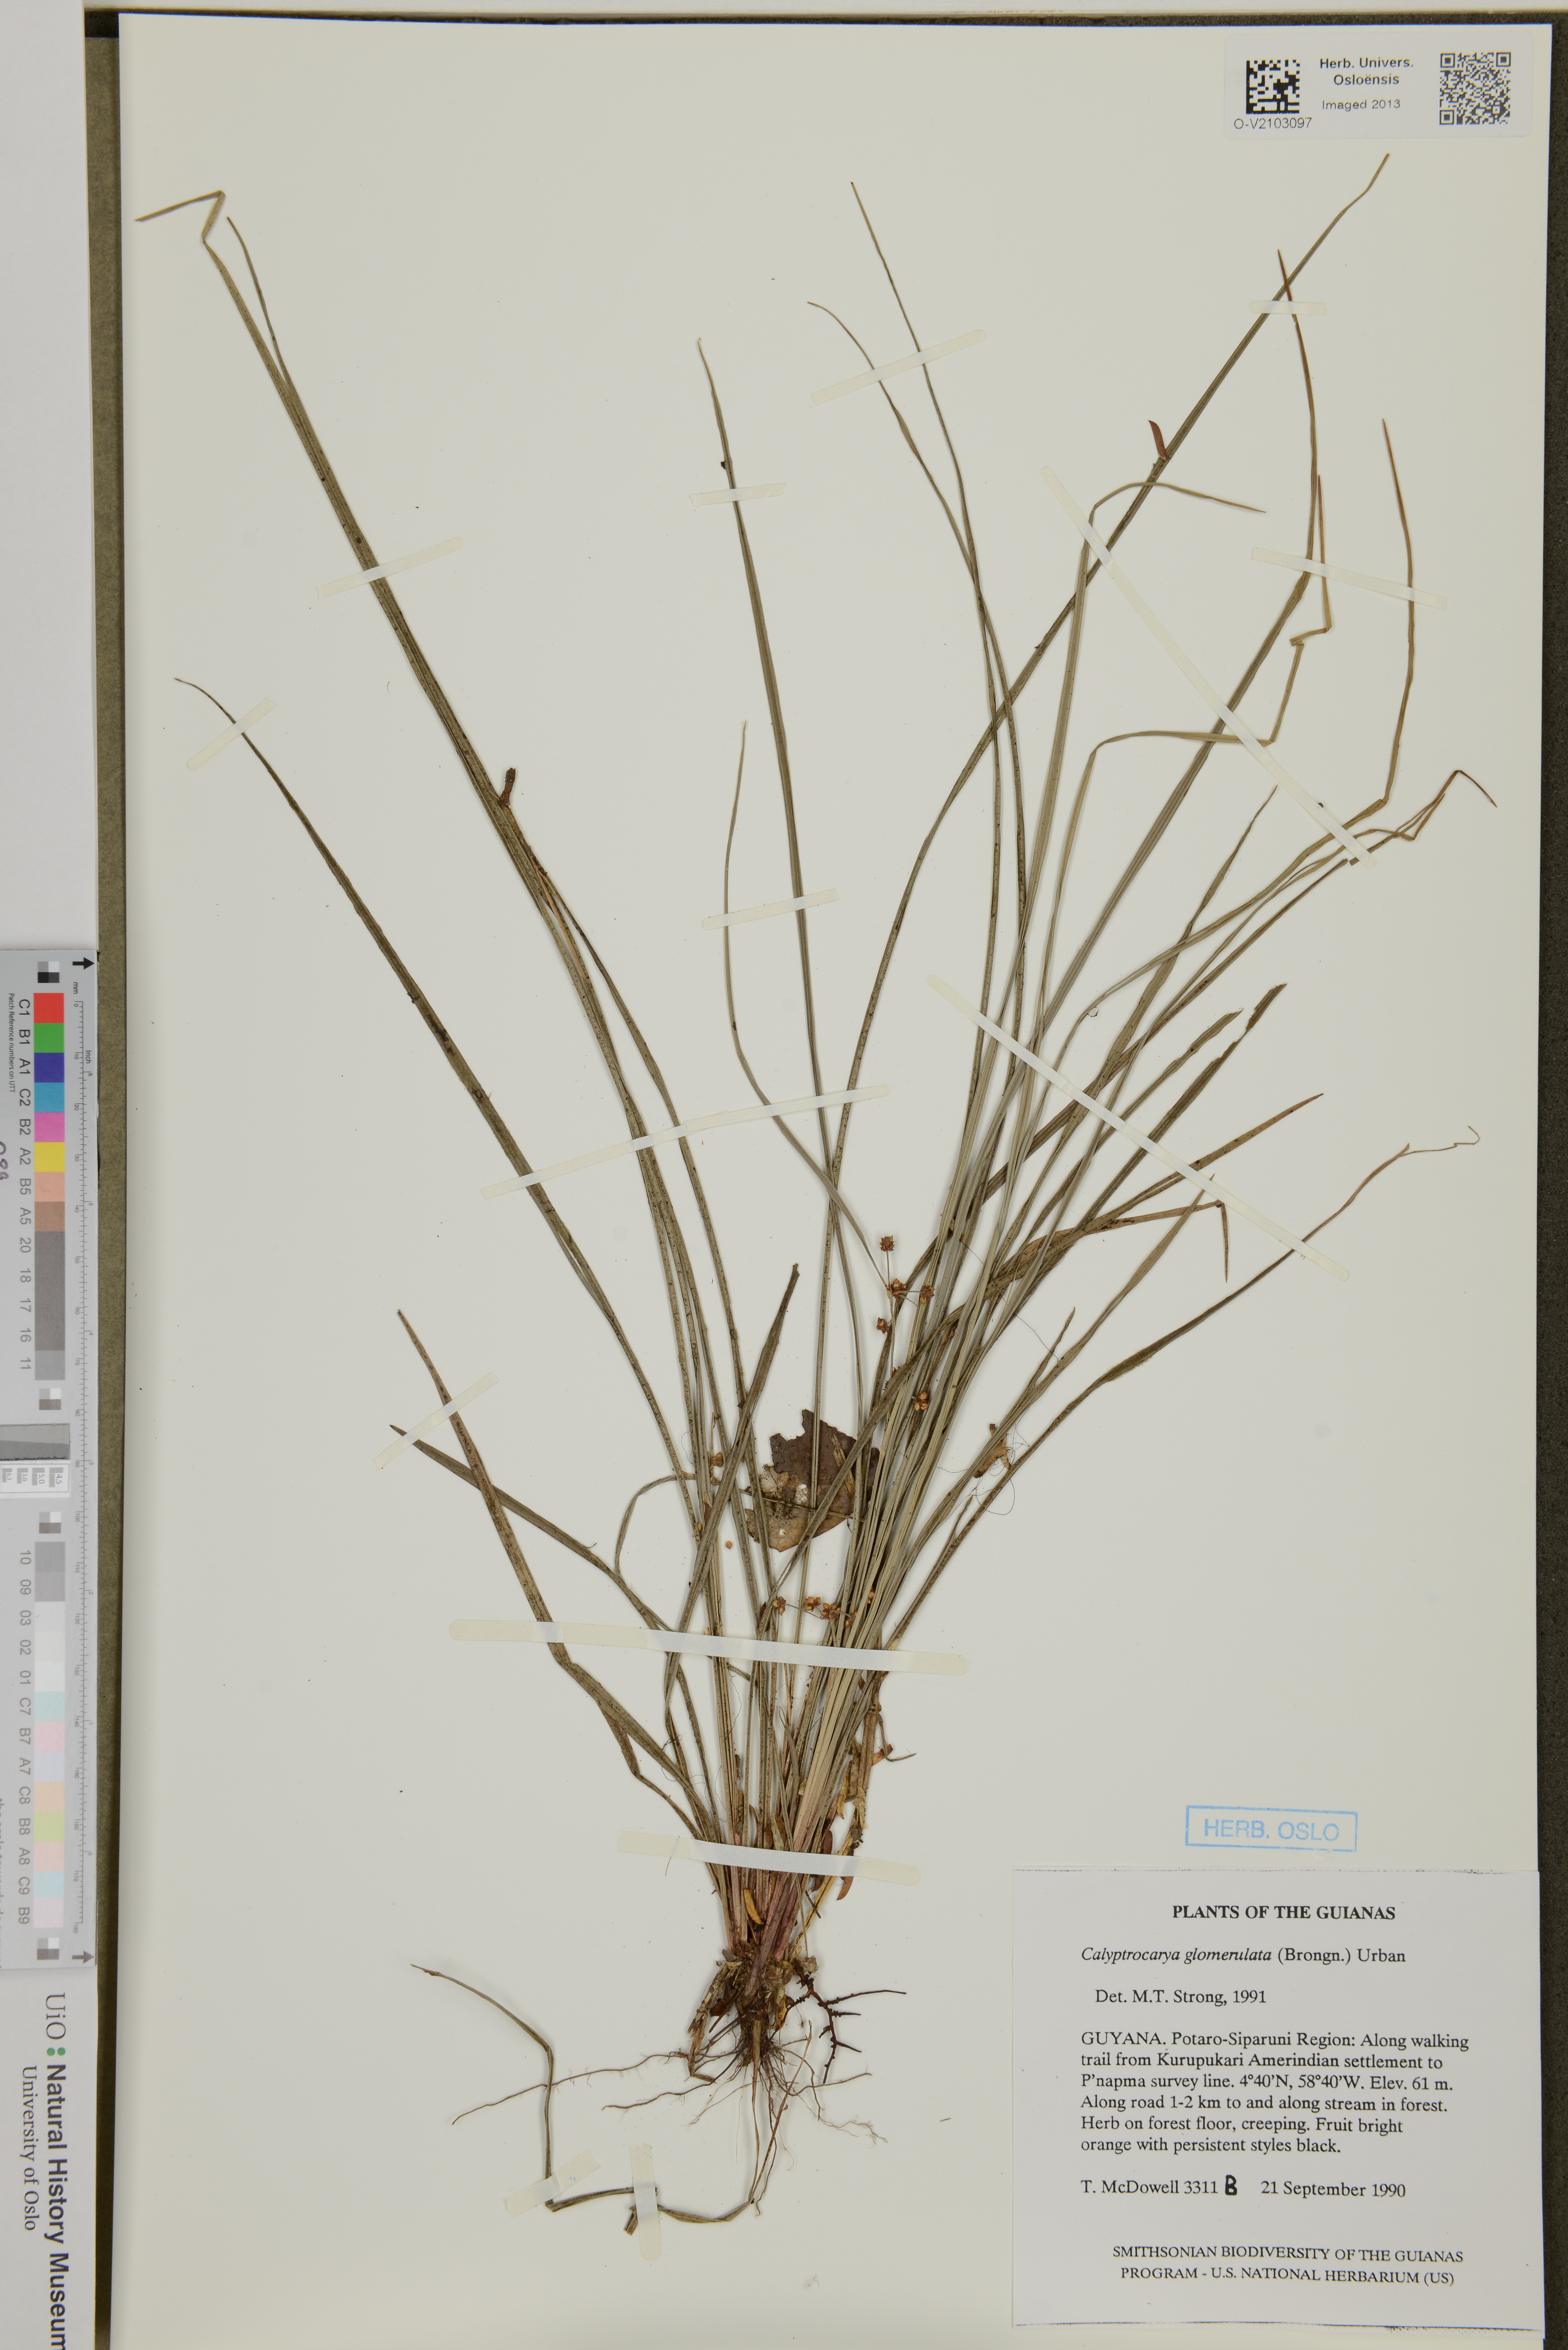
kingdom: Plantae
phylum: Tracheophyta
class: Liliopsida
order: Poales
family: Cyperaceae
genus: Calyptrocarya
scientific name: Calyptrocarya glomerulata
